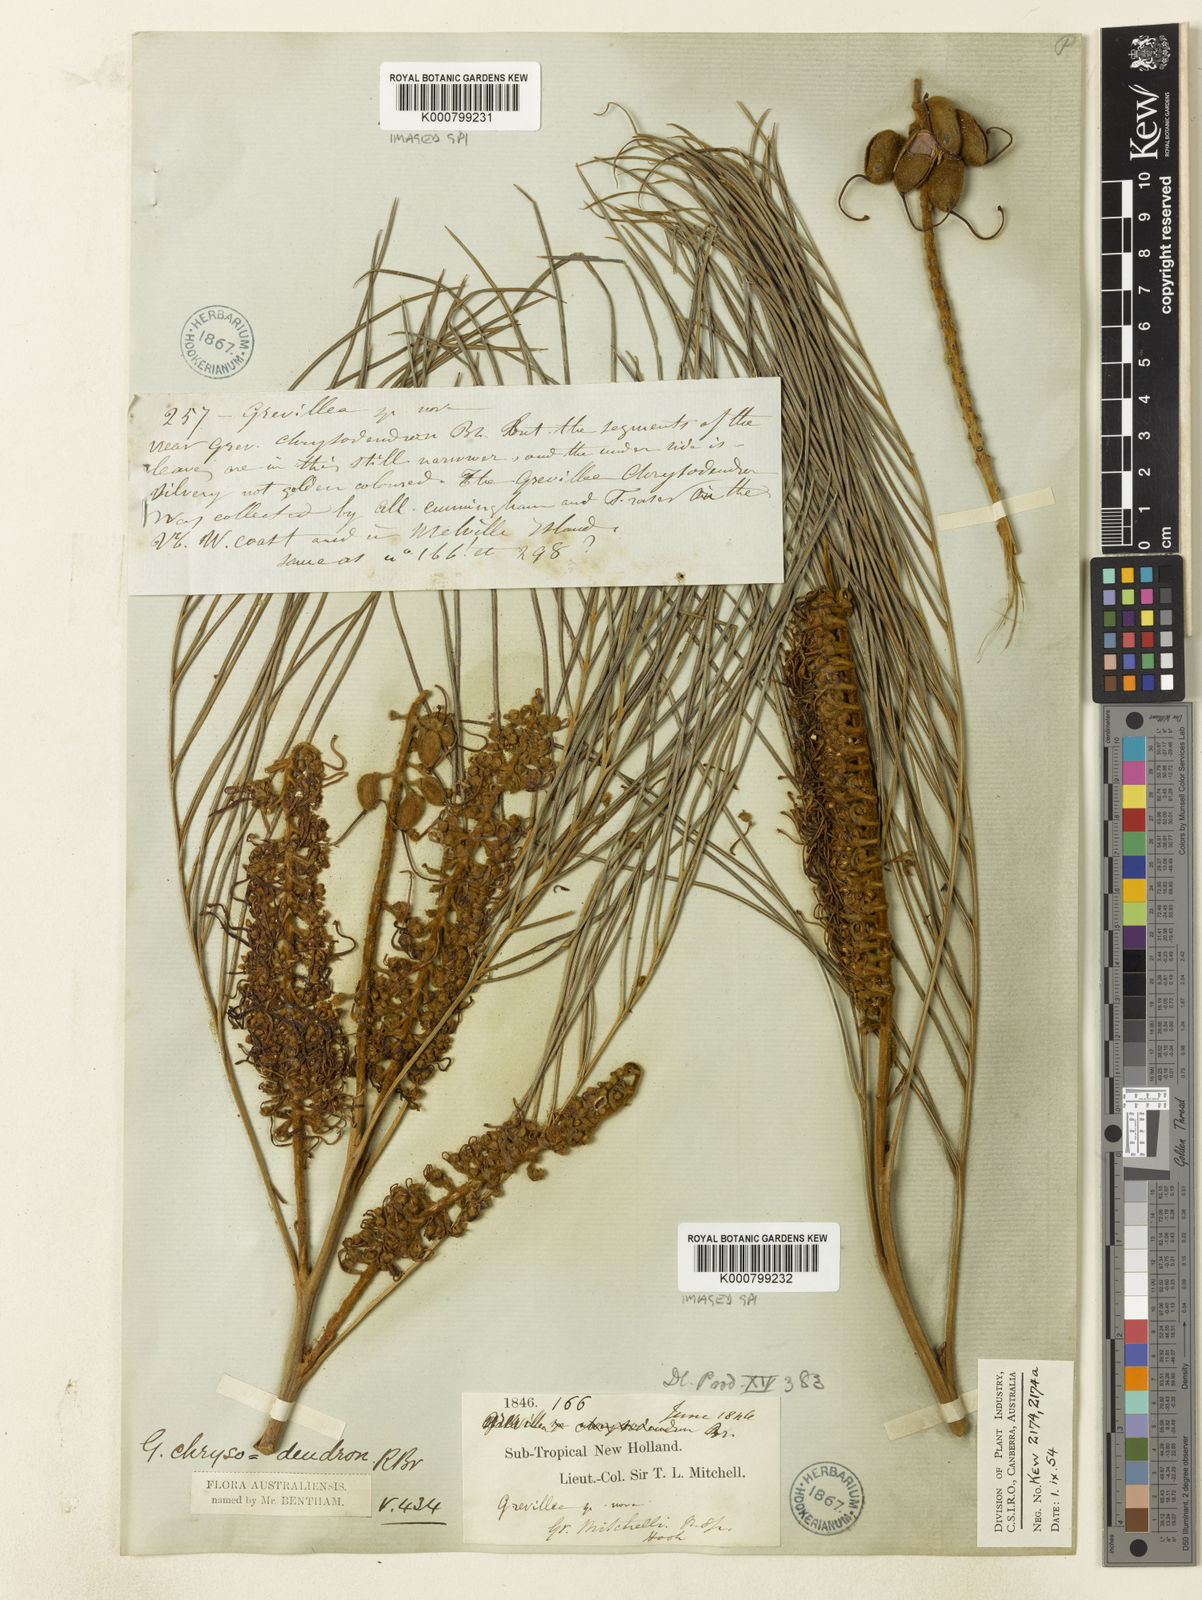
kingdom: Plantae
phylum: Tracheophyta
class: Magnoliopsida
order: Proteales
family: Proteaceae
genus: Grevillea
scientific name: Grevillea pteridifolia
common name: Golden grevillea
